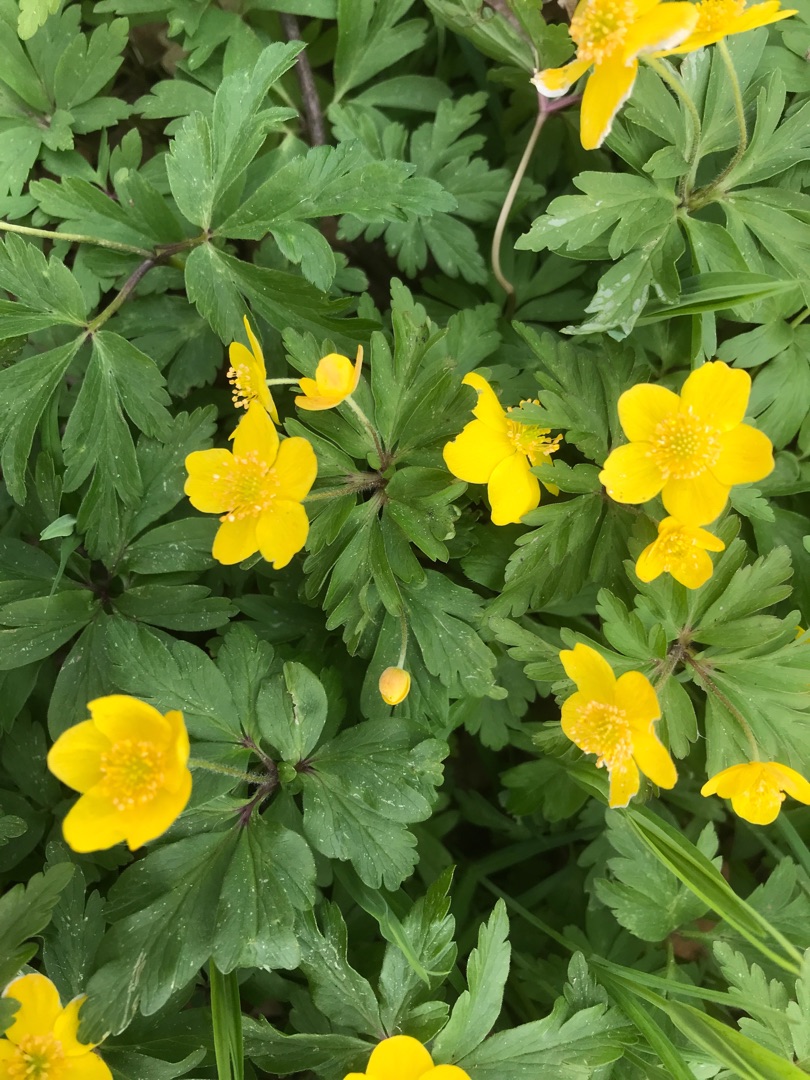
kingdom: Plantae
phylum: Tracheophyta
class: Magnoliopsida
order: Ranunculales
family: Ranunculaceae
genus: Anemone
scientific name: Anemone ranunculoides
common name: Gul anemone
